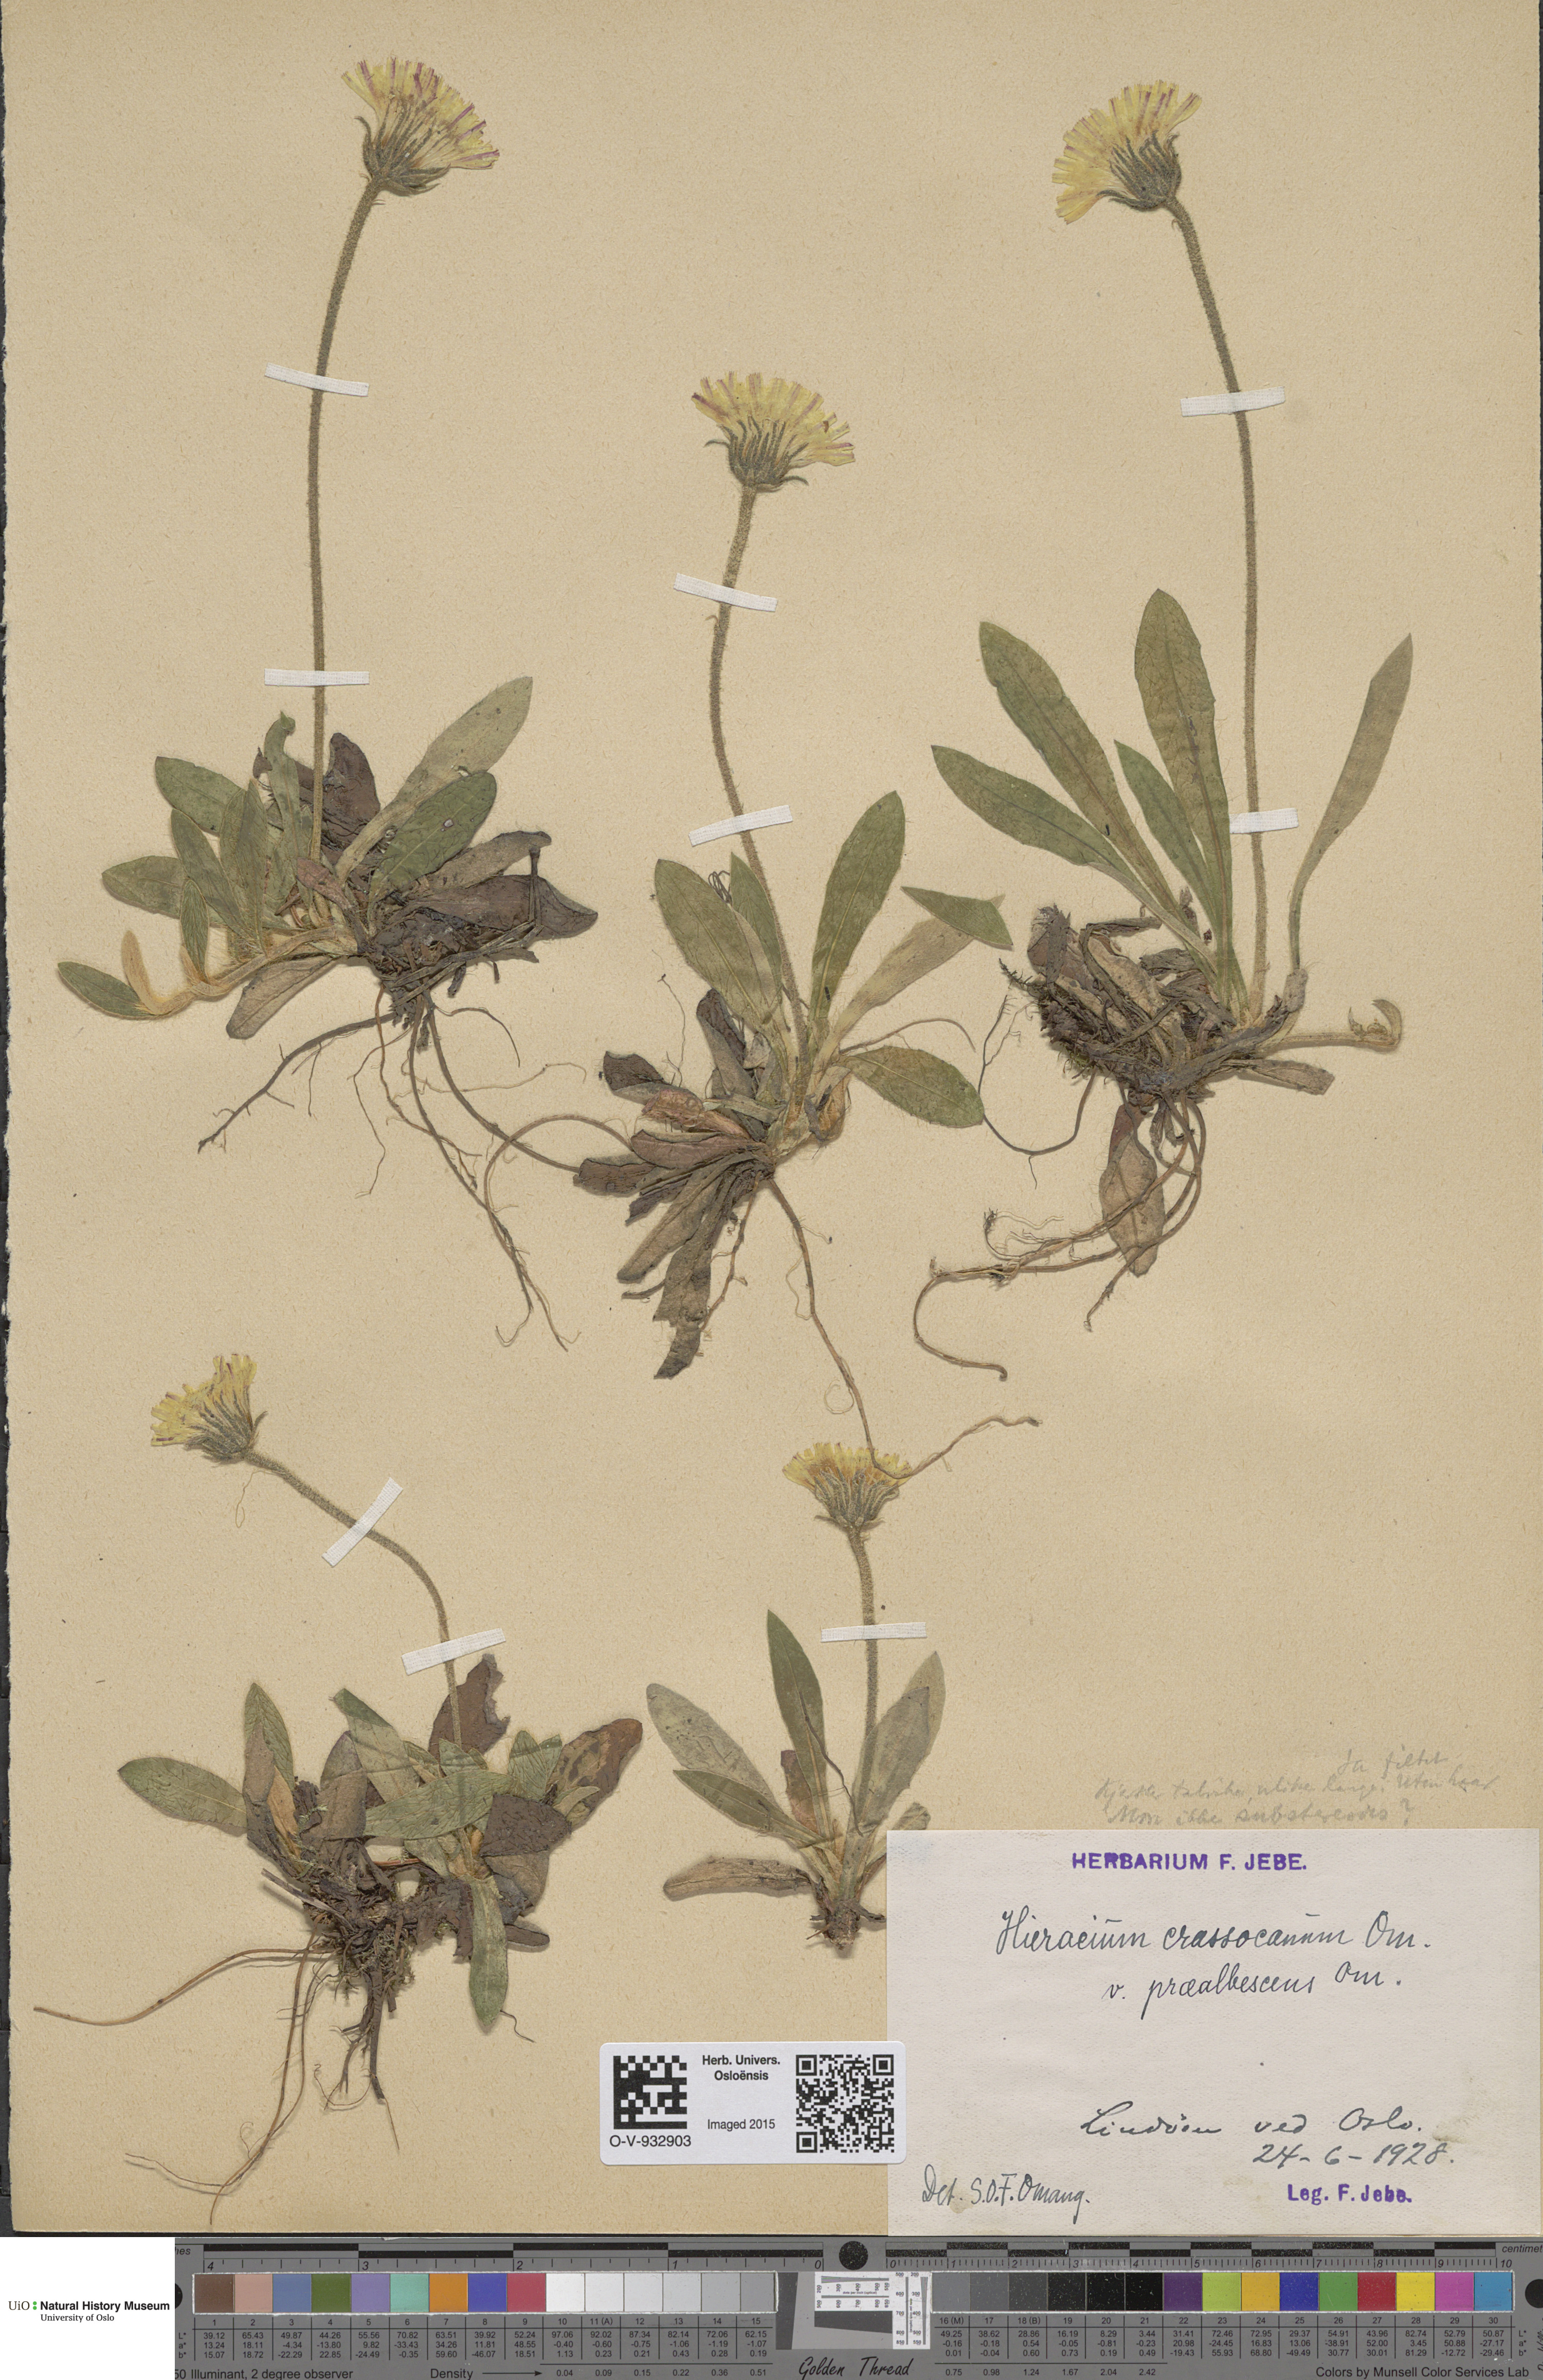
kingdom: Plantae
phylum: Tracheophyta
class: Magnoliopsida
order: Asterales
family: Asteraceae
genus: Pilosella
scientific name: Pilosella officinarum
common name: Mouse-ear hawkweed
